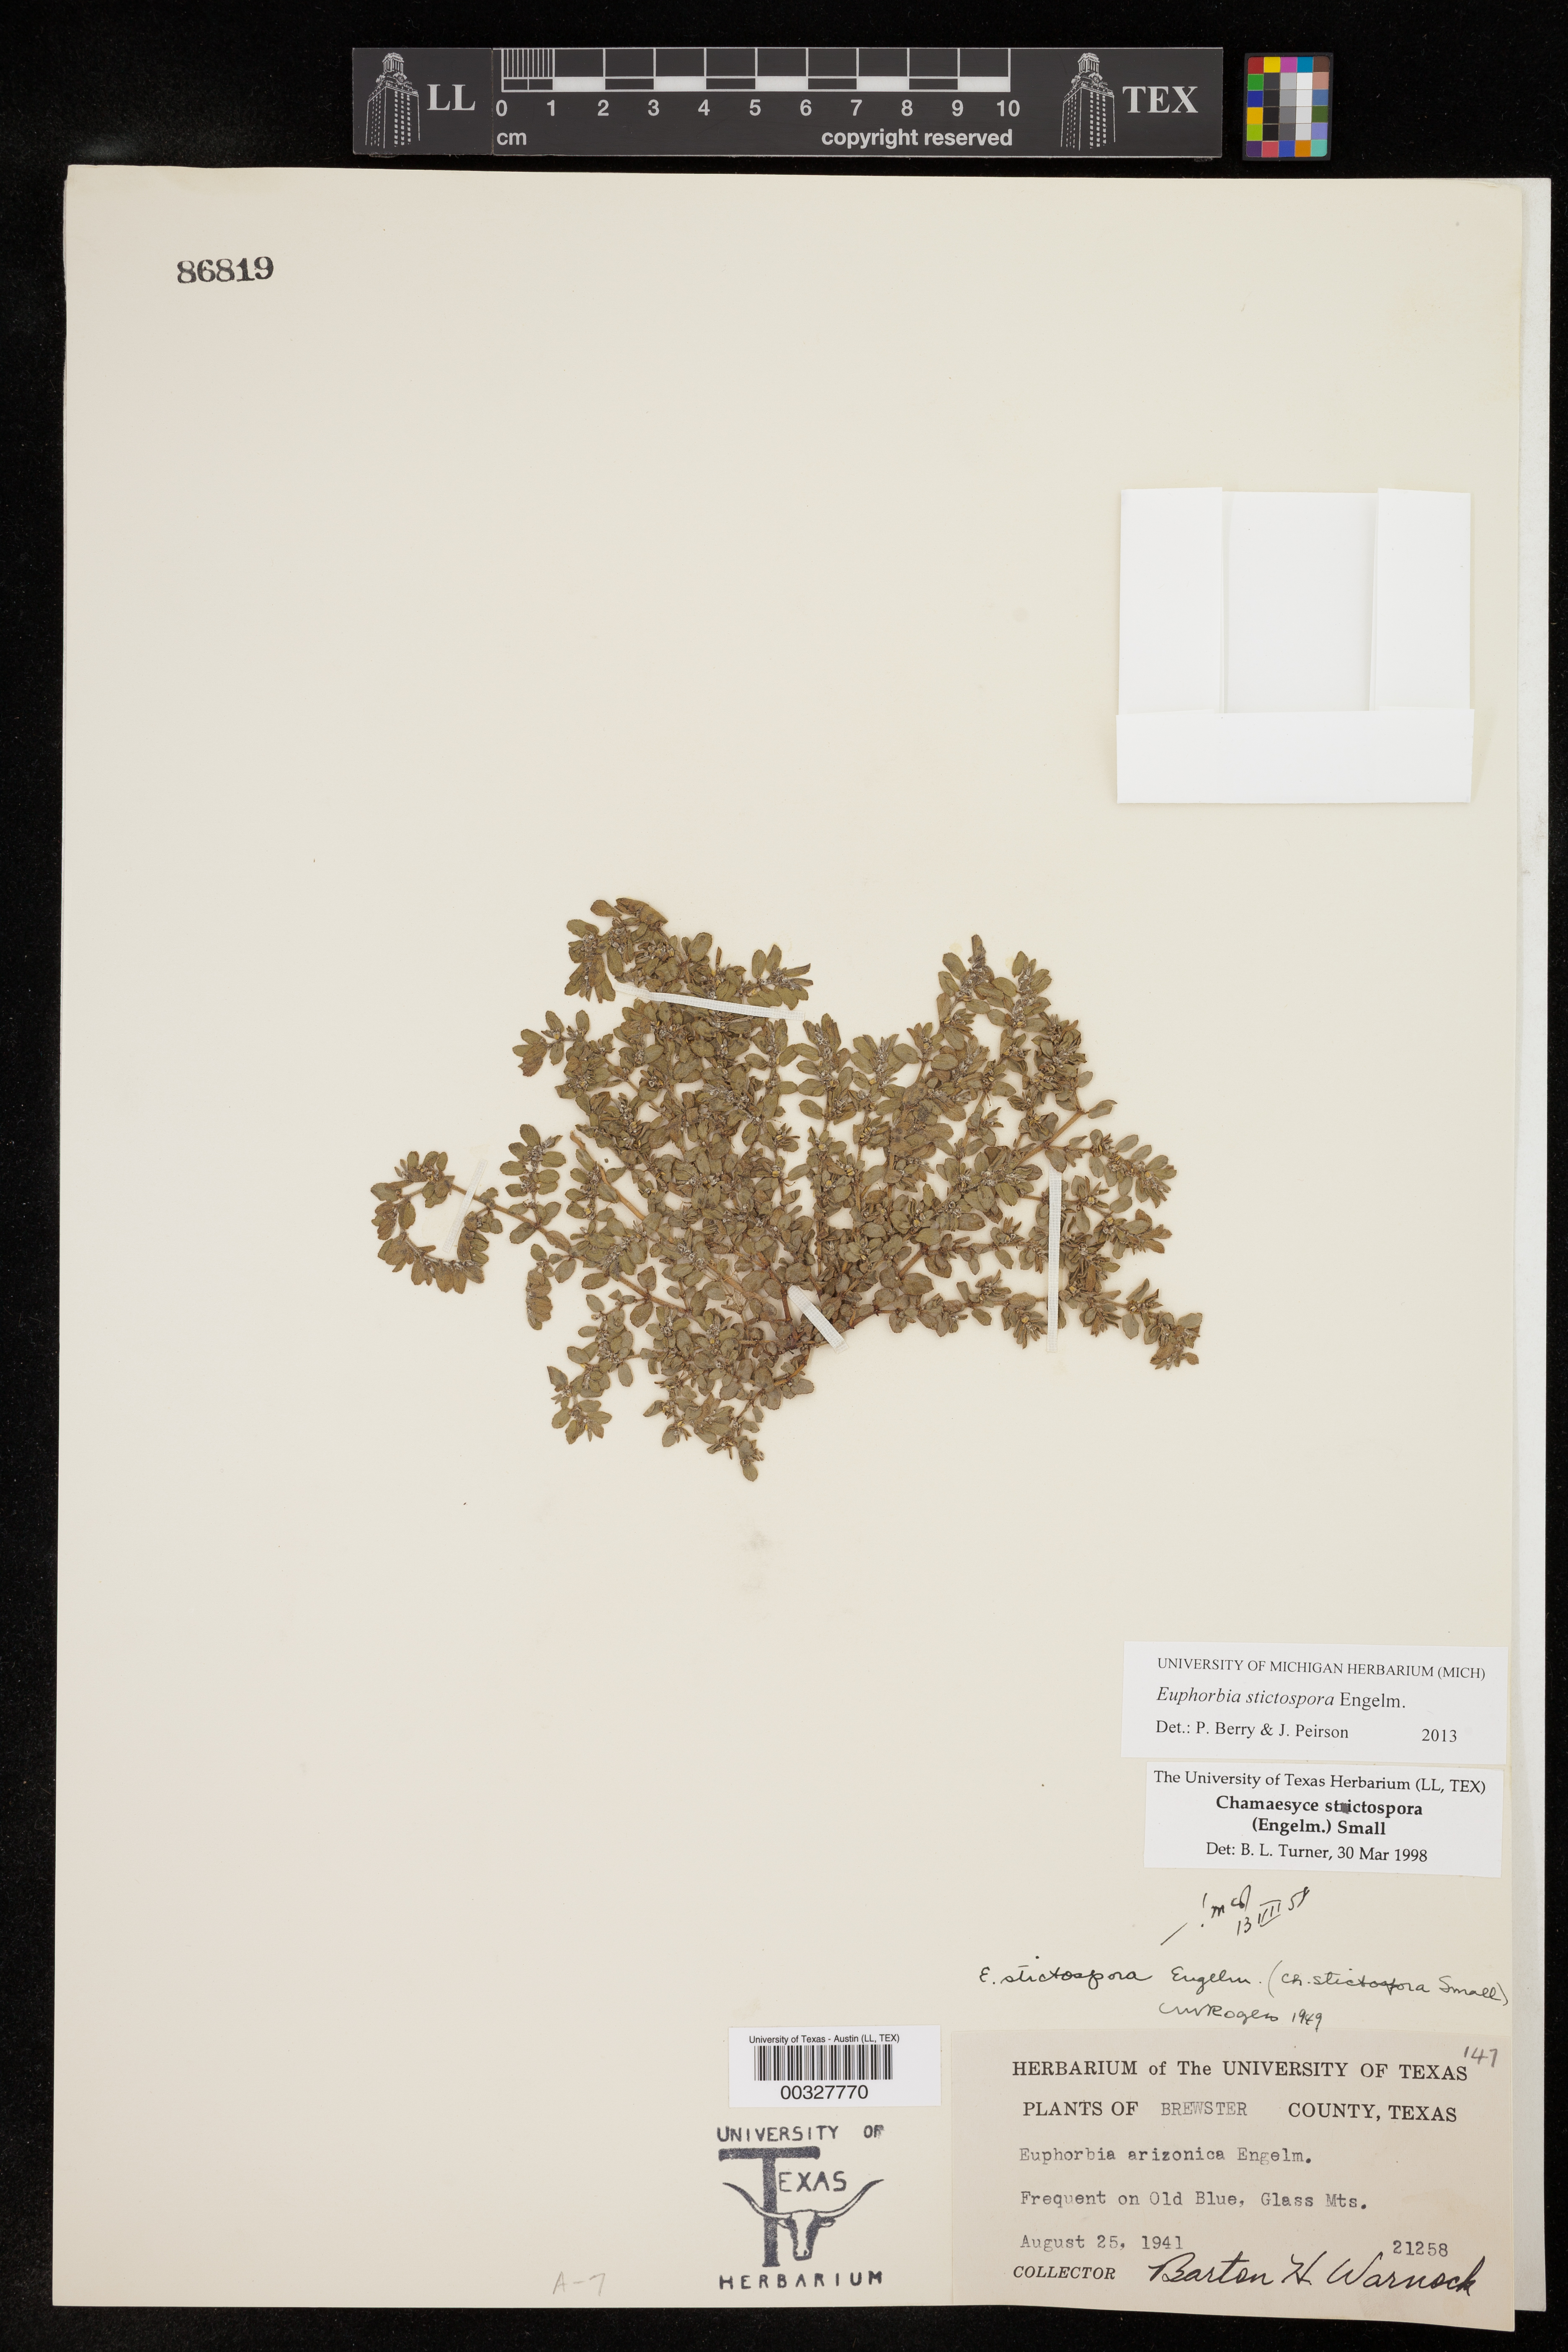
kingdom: Plantae
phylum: Tracheophyta
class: Magnoliopsida
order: Malpighiales
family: Euphorbiaceae
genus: Euphorbia
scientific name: Euphorbia stictospora
